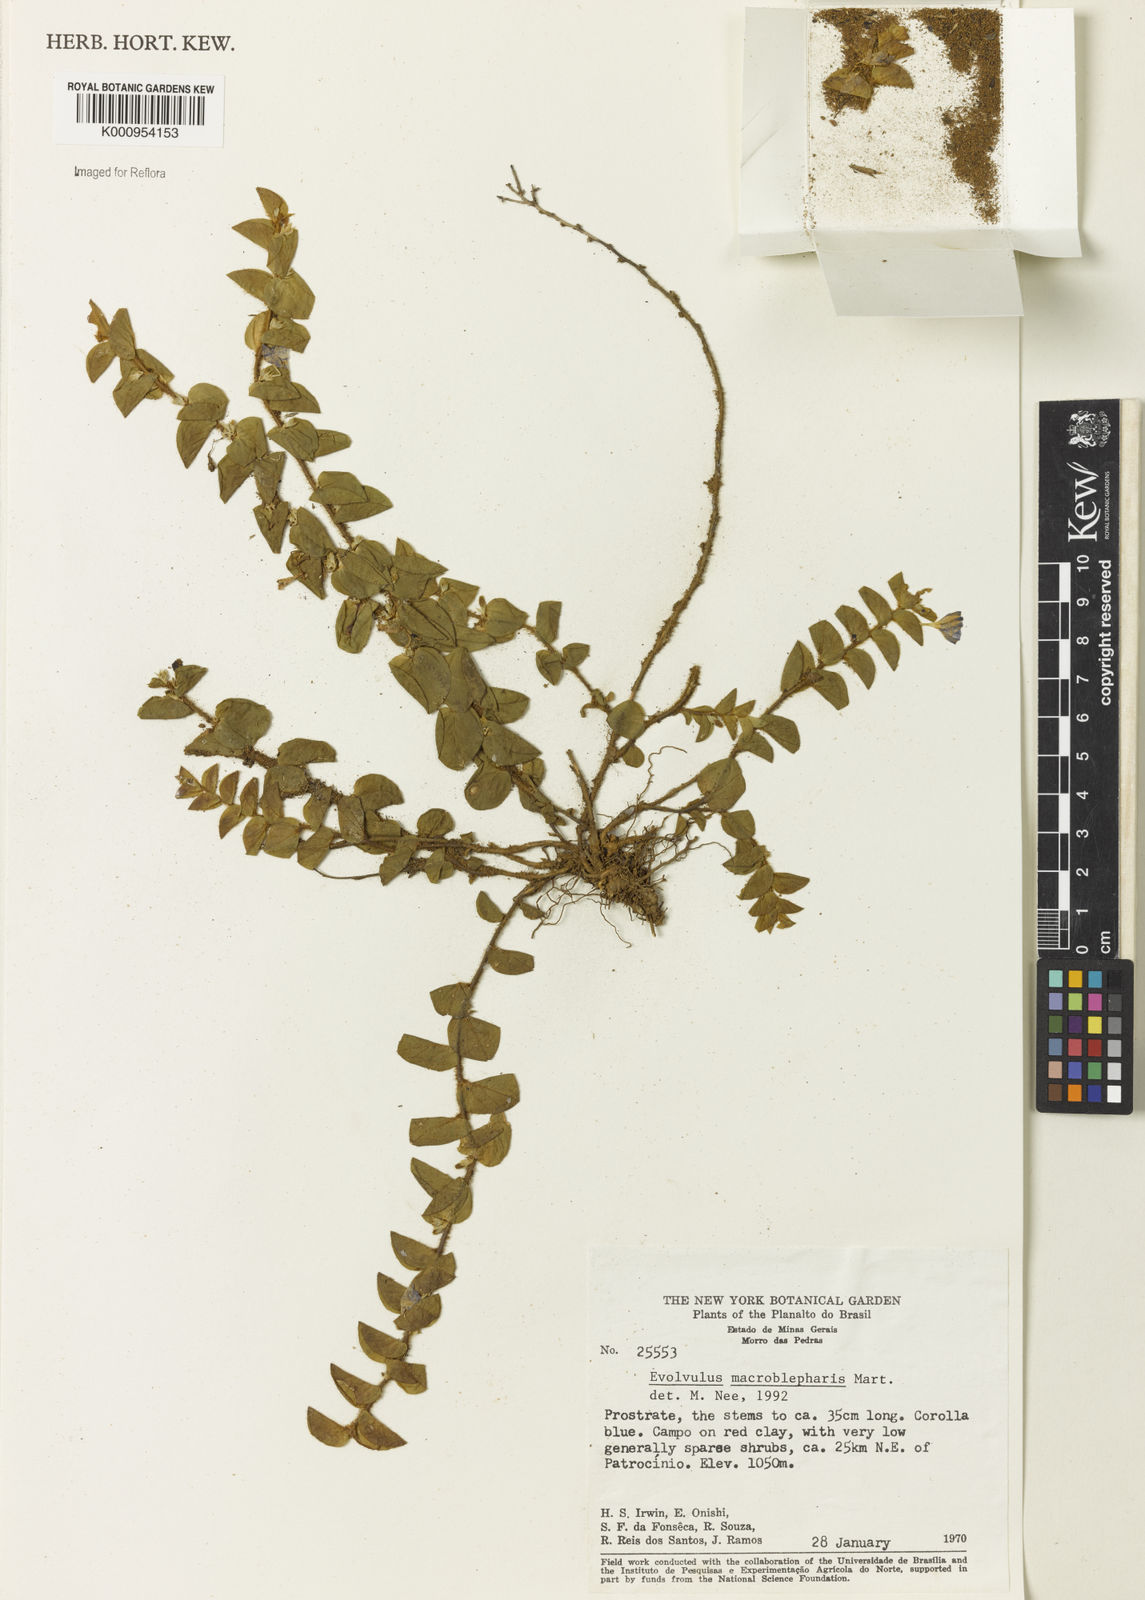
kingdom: Plantae
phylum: Tracheophyta
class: Magnoliopsida
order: Solanales
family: Convolvulaceae
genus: Evolvulus
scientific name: Evolvulus macroblepharis
